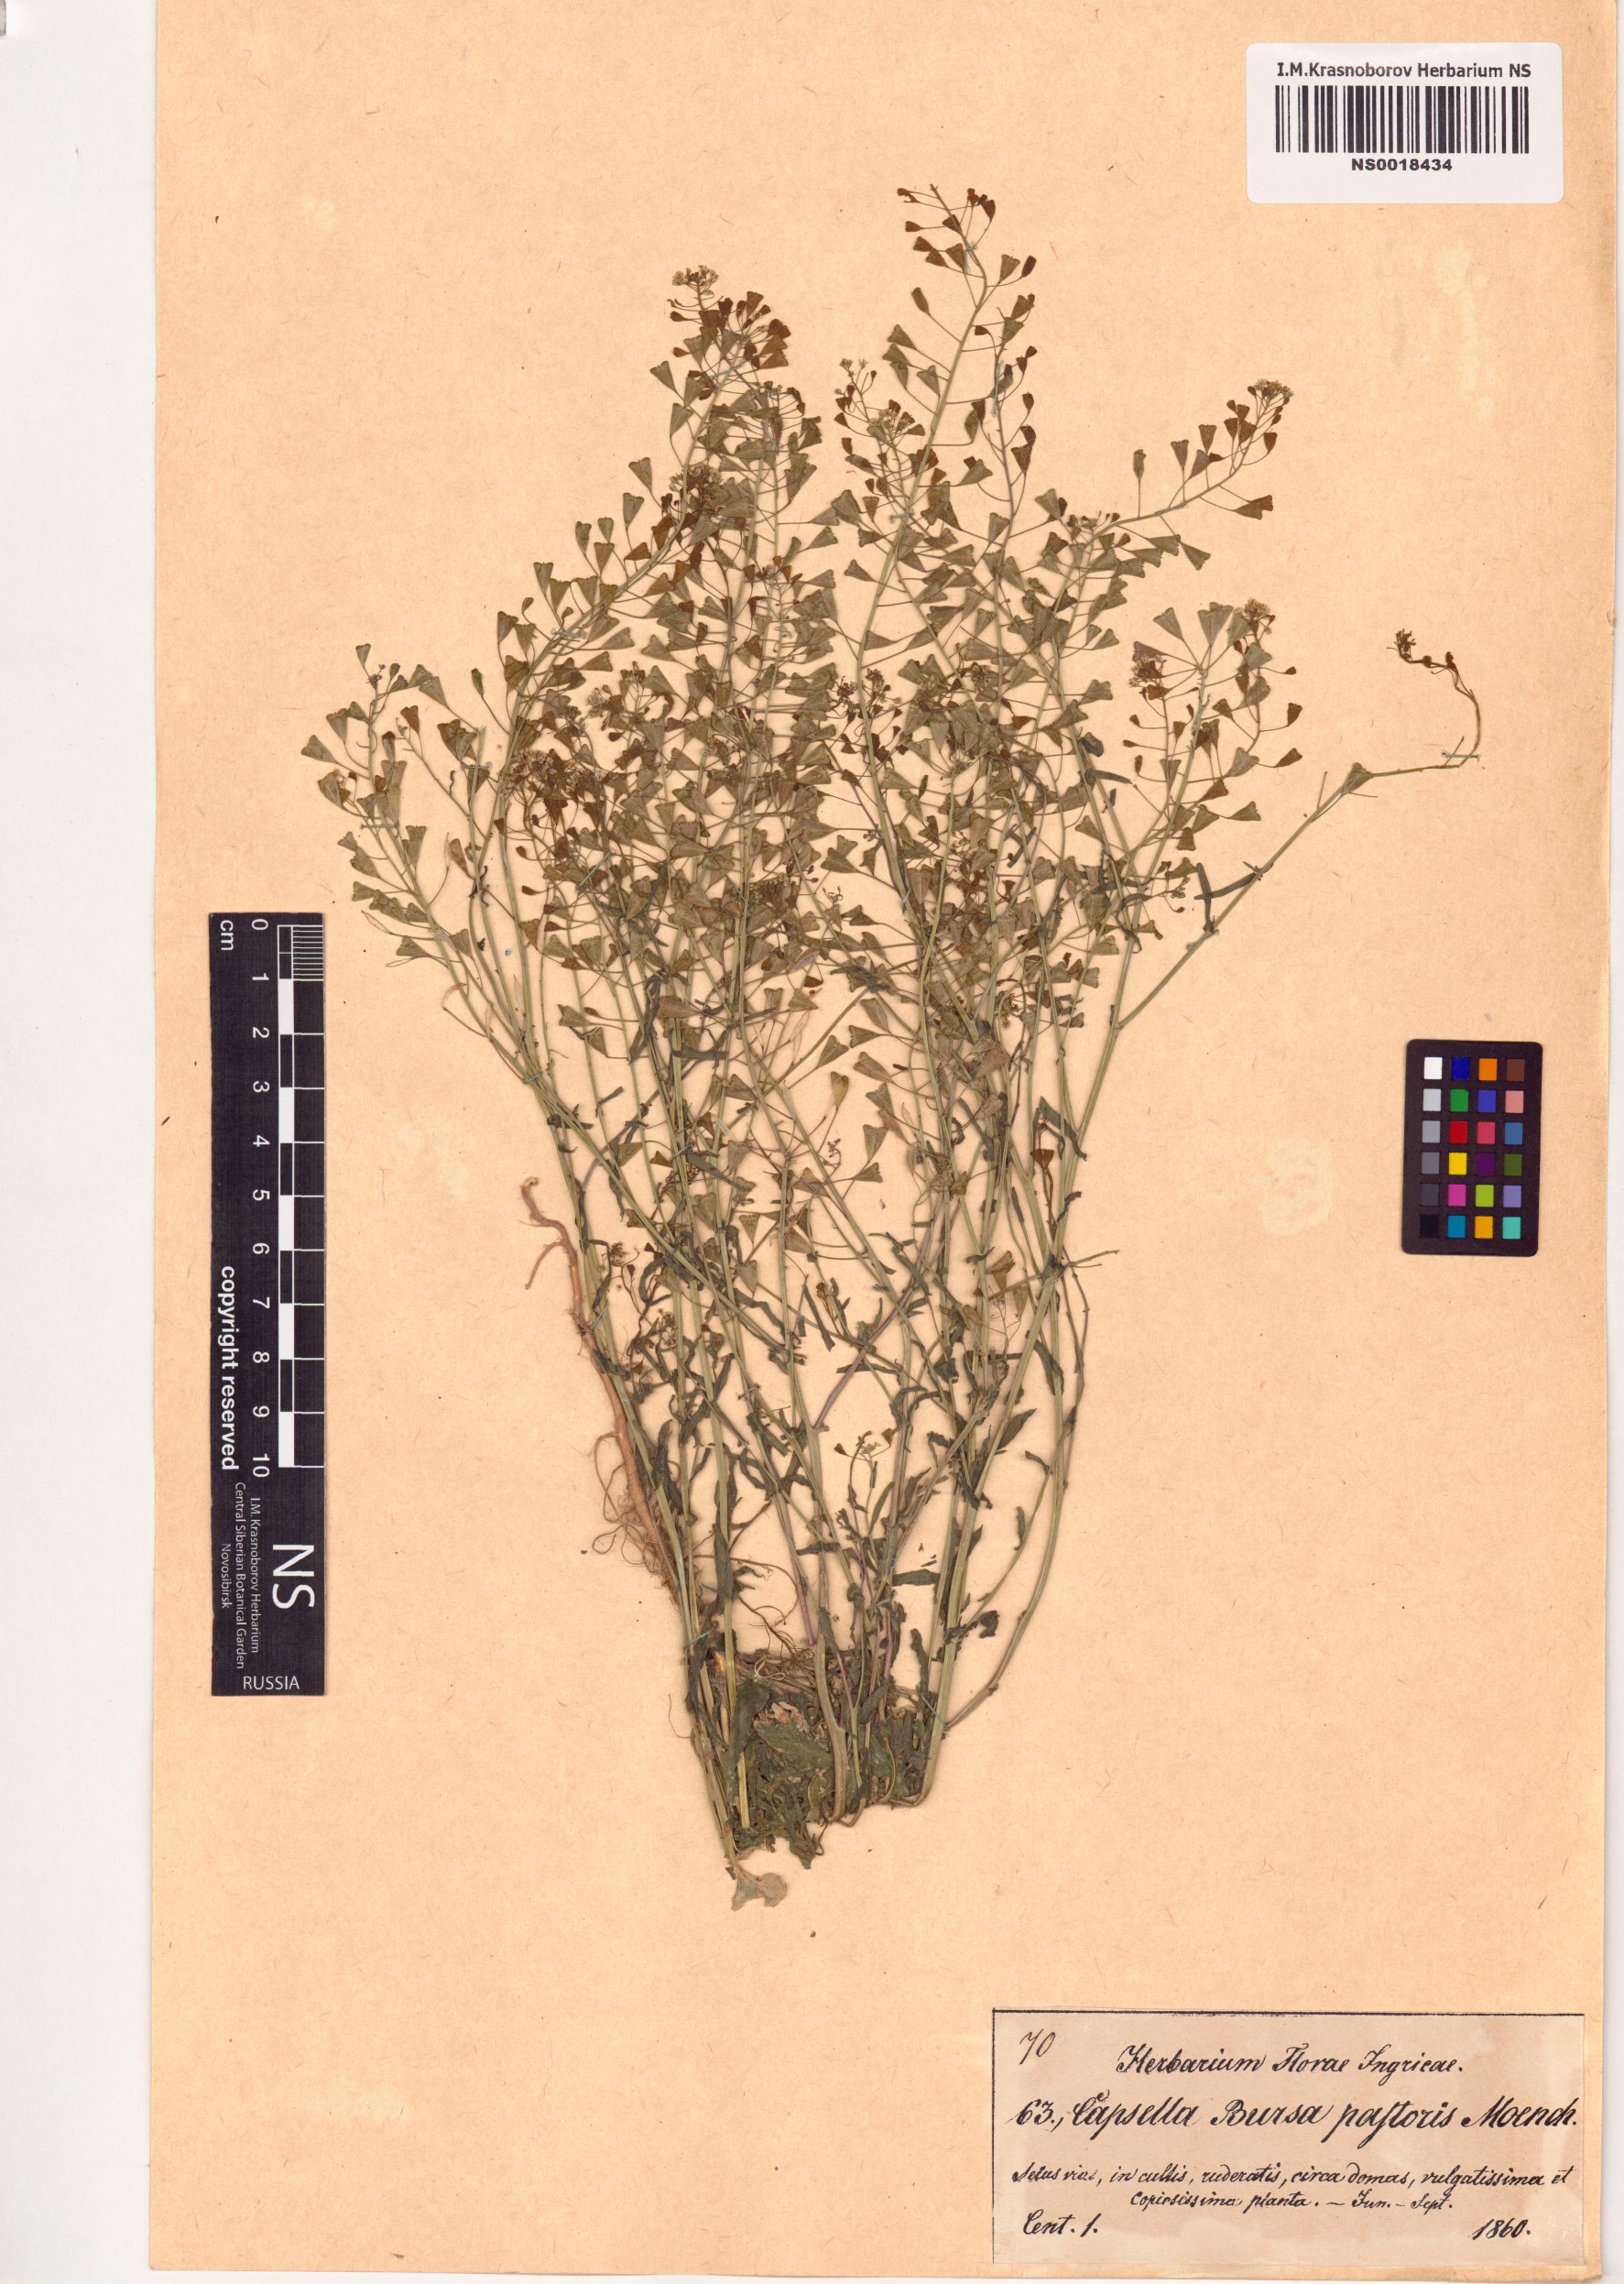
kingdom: Plantae
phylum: Tracheophyta
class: Magnoliopsida
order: Brassicales
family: Brassicaceae
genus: Capsella
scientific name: Capsella bursa-pastoris
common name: Shepherd's purse
